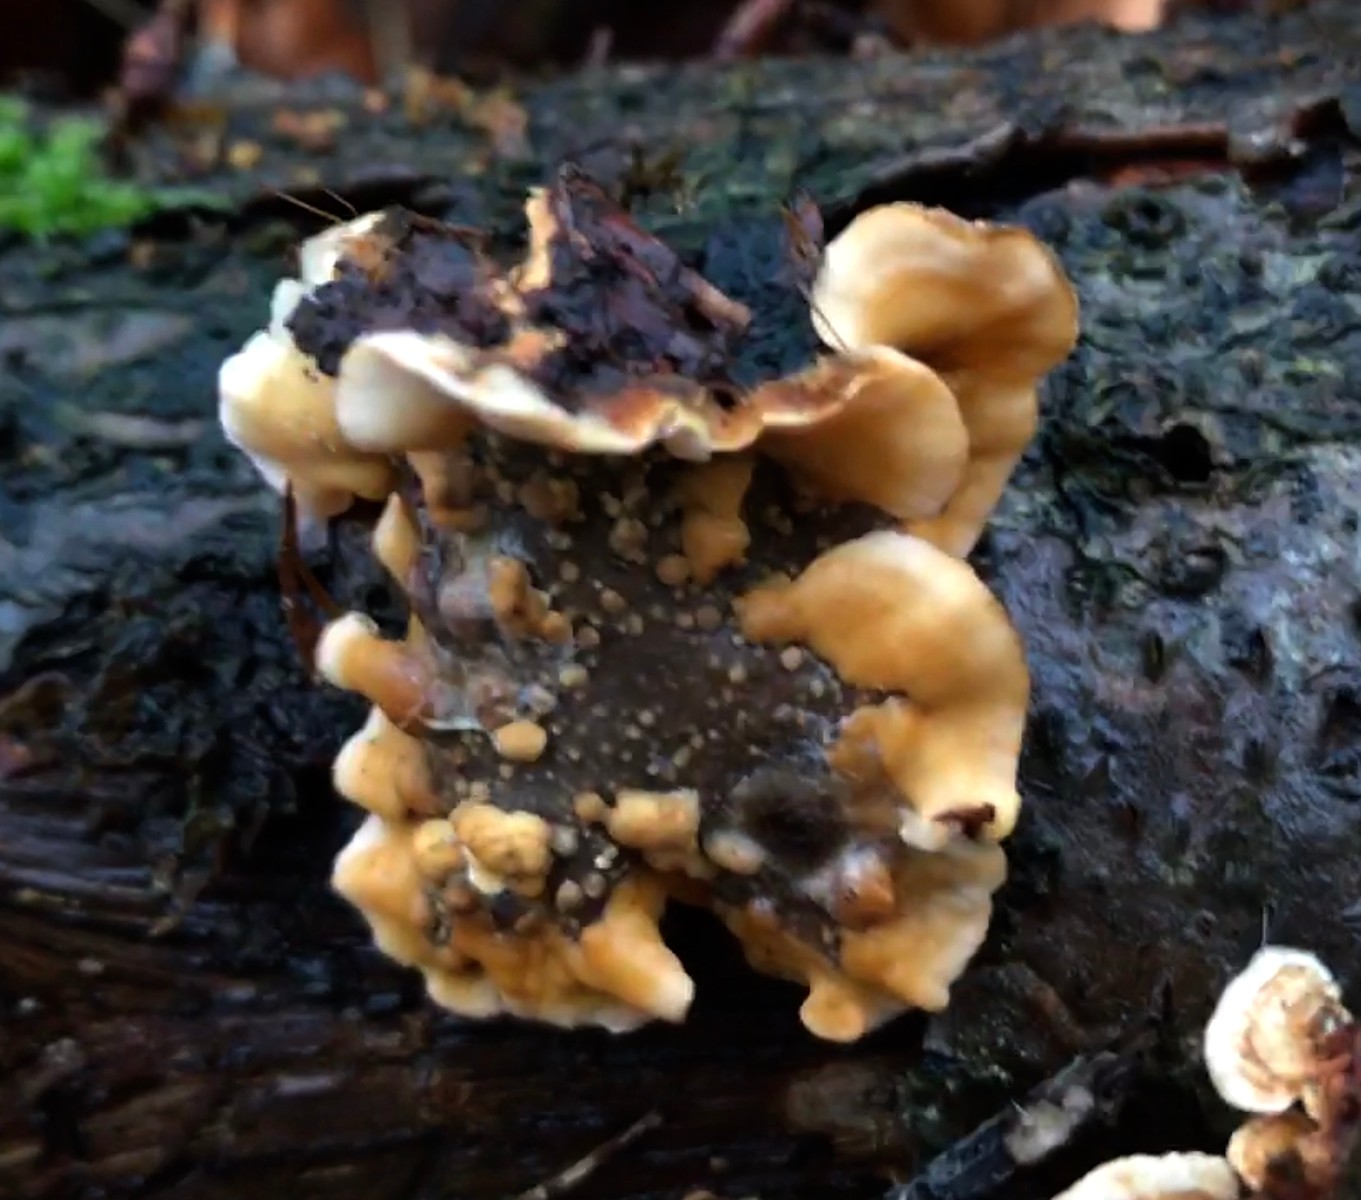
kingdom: Fungi
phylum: Basidiomycota
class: Agaricomycetes
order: Russulales
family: Stereaceae
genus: Stereum
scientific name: Stereum hirsutum
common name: håret lædersvamp
